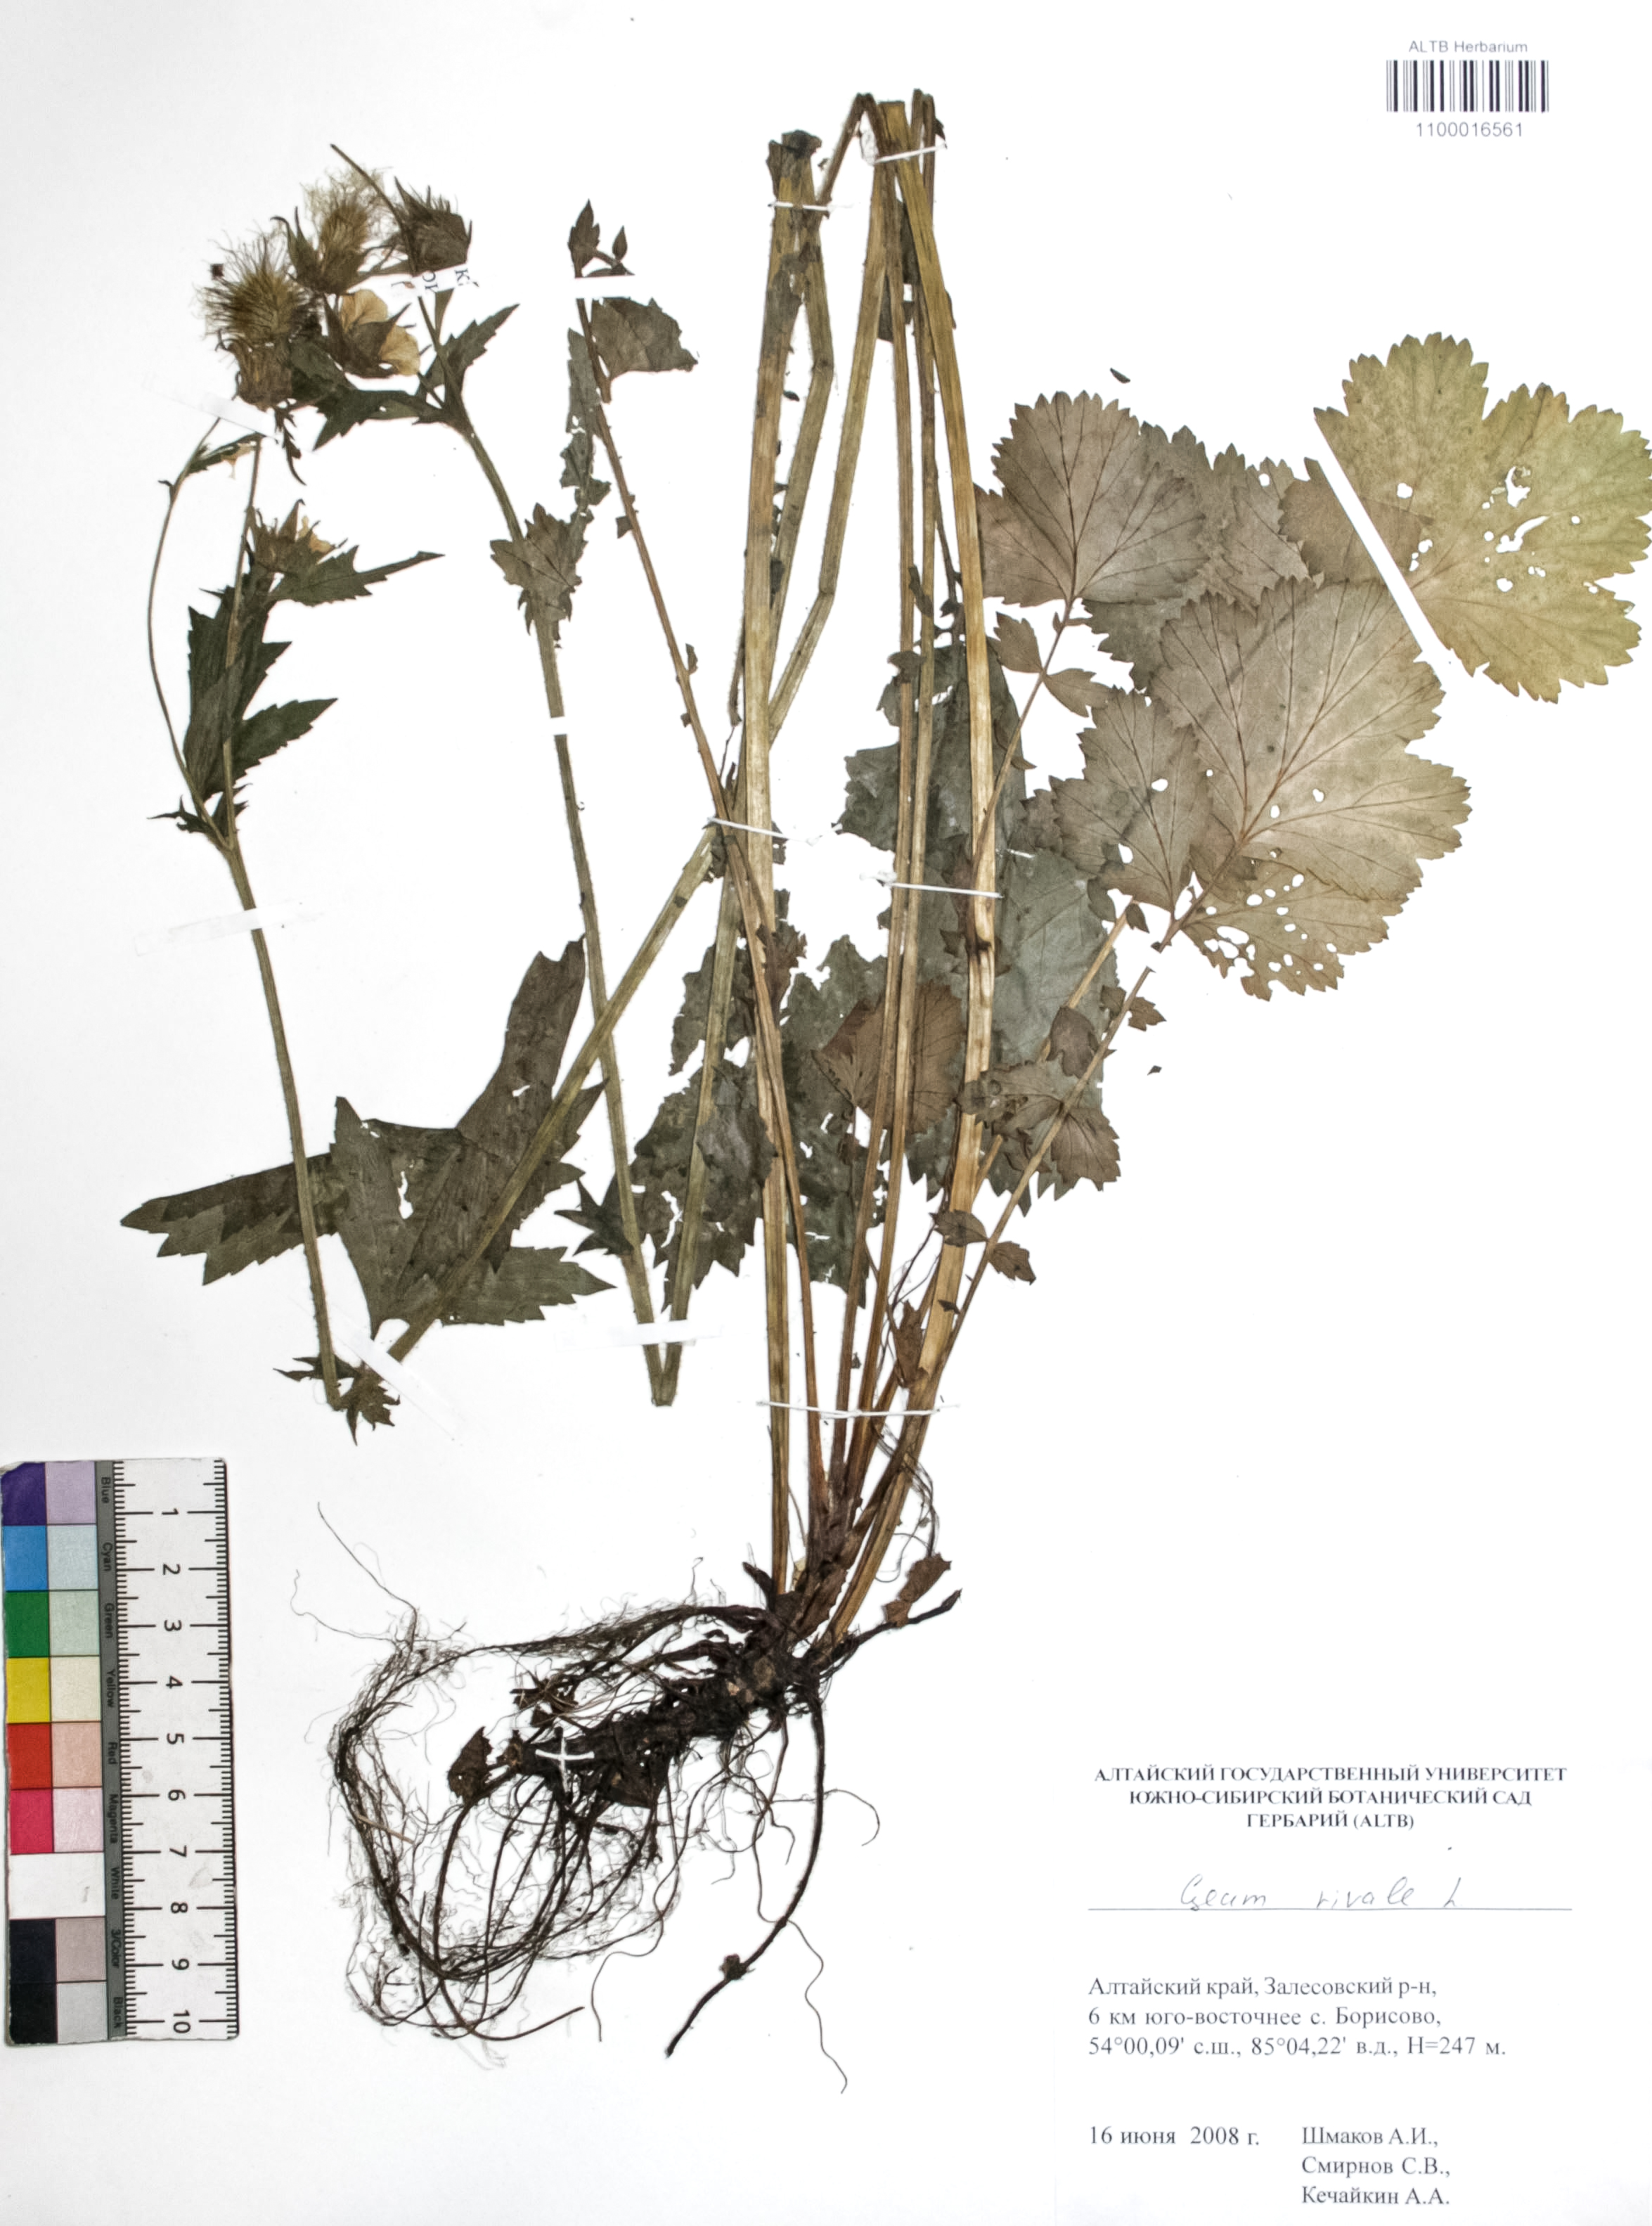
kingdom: Plantae
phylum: Tracheophyta
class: Magnoliopsida
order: Rosales
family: Rosaceae
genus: Geum
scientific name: Geum aleppicum
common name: Yellow avens
